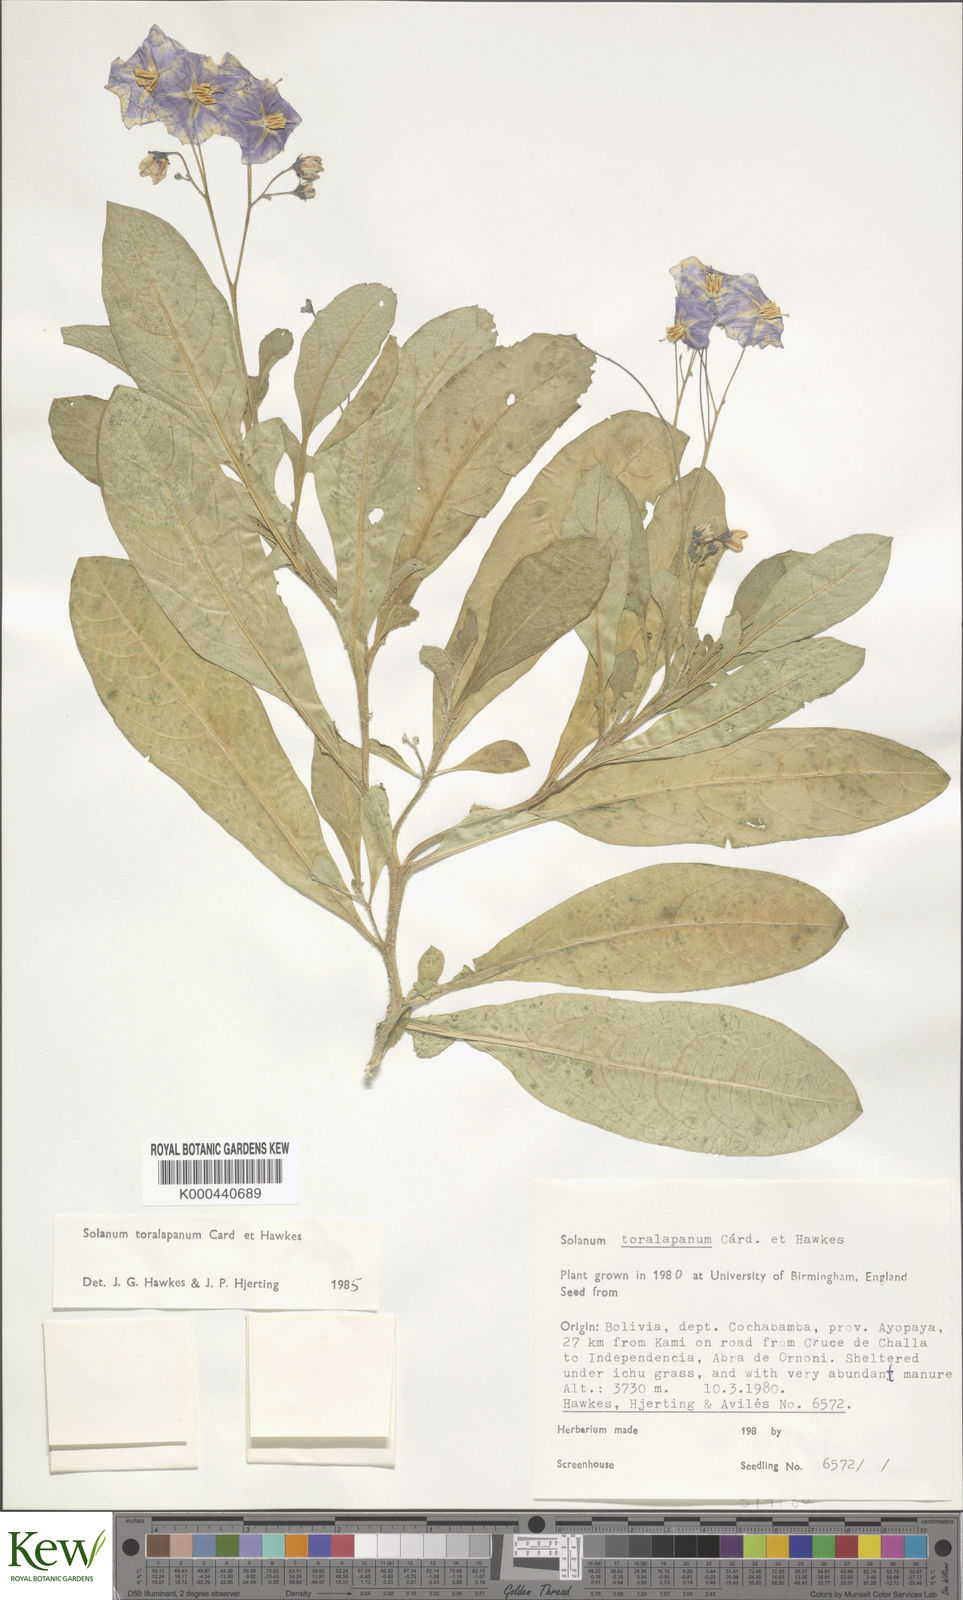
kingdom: Plantae
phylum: Tracheophyta
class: Magnoliopsida
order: Solanales
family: Solanaceae
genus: Solanum
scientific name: Solanum boliviense
